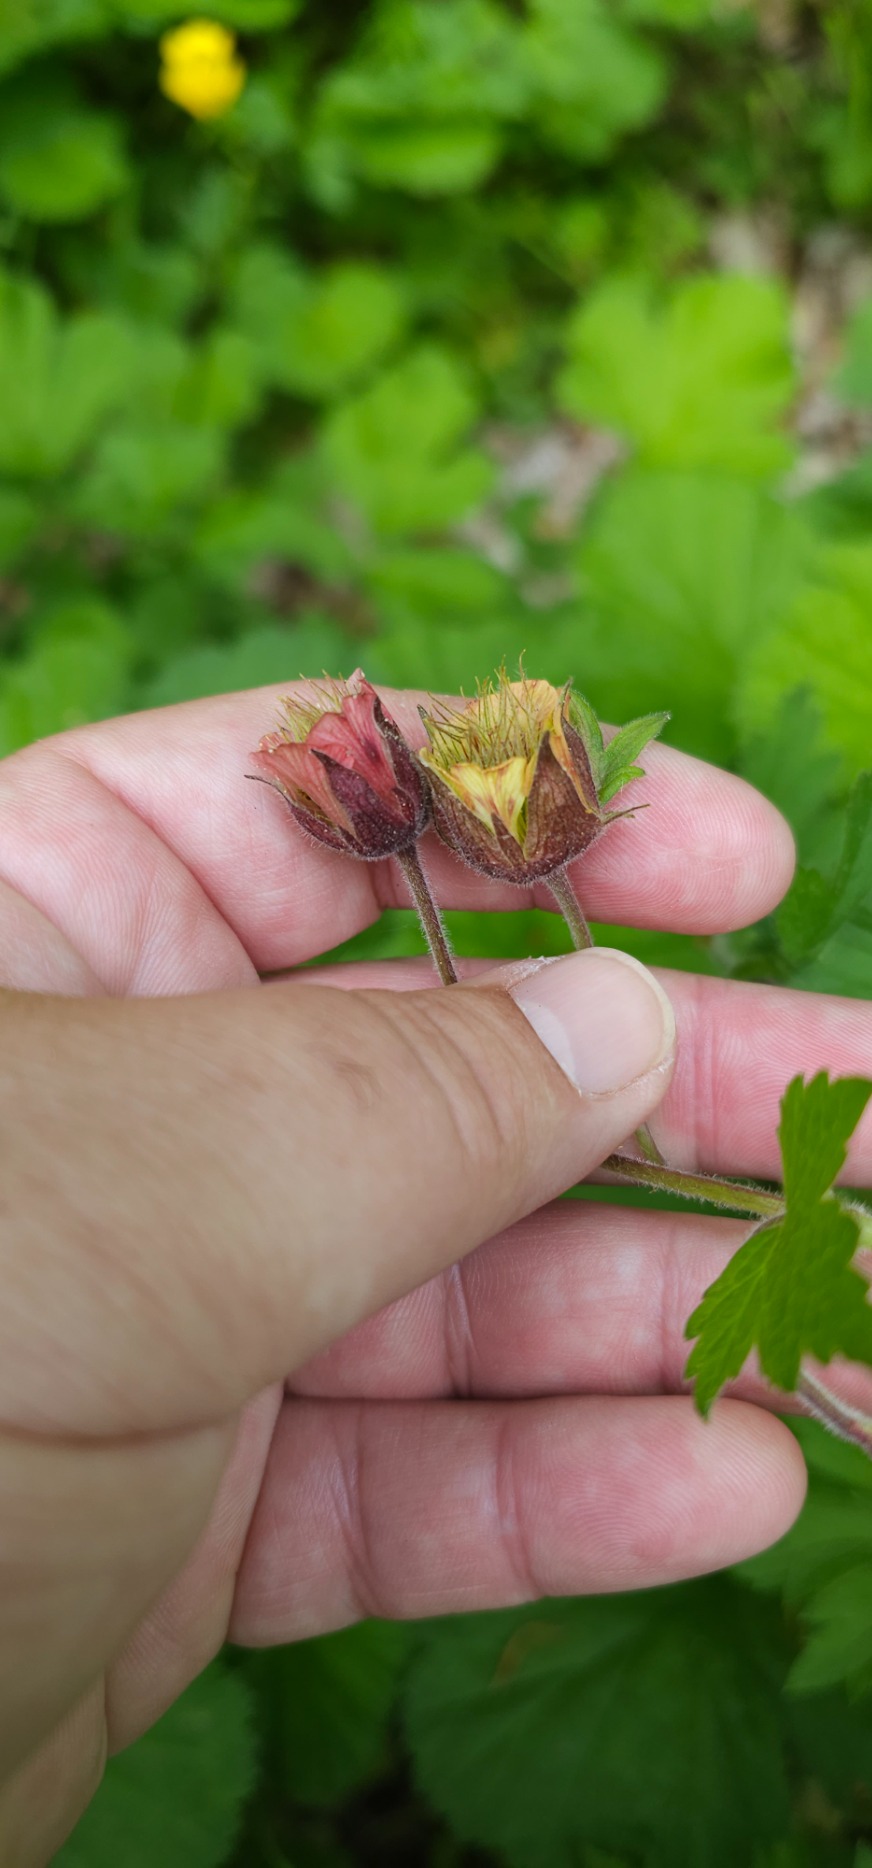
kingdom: Plantae
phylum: Tracheophyta
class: Magnoliopsida
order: Rosales
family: Rosaceae
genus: Geum
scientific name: Geum rivale
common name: Eng-nellikerod
